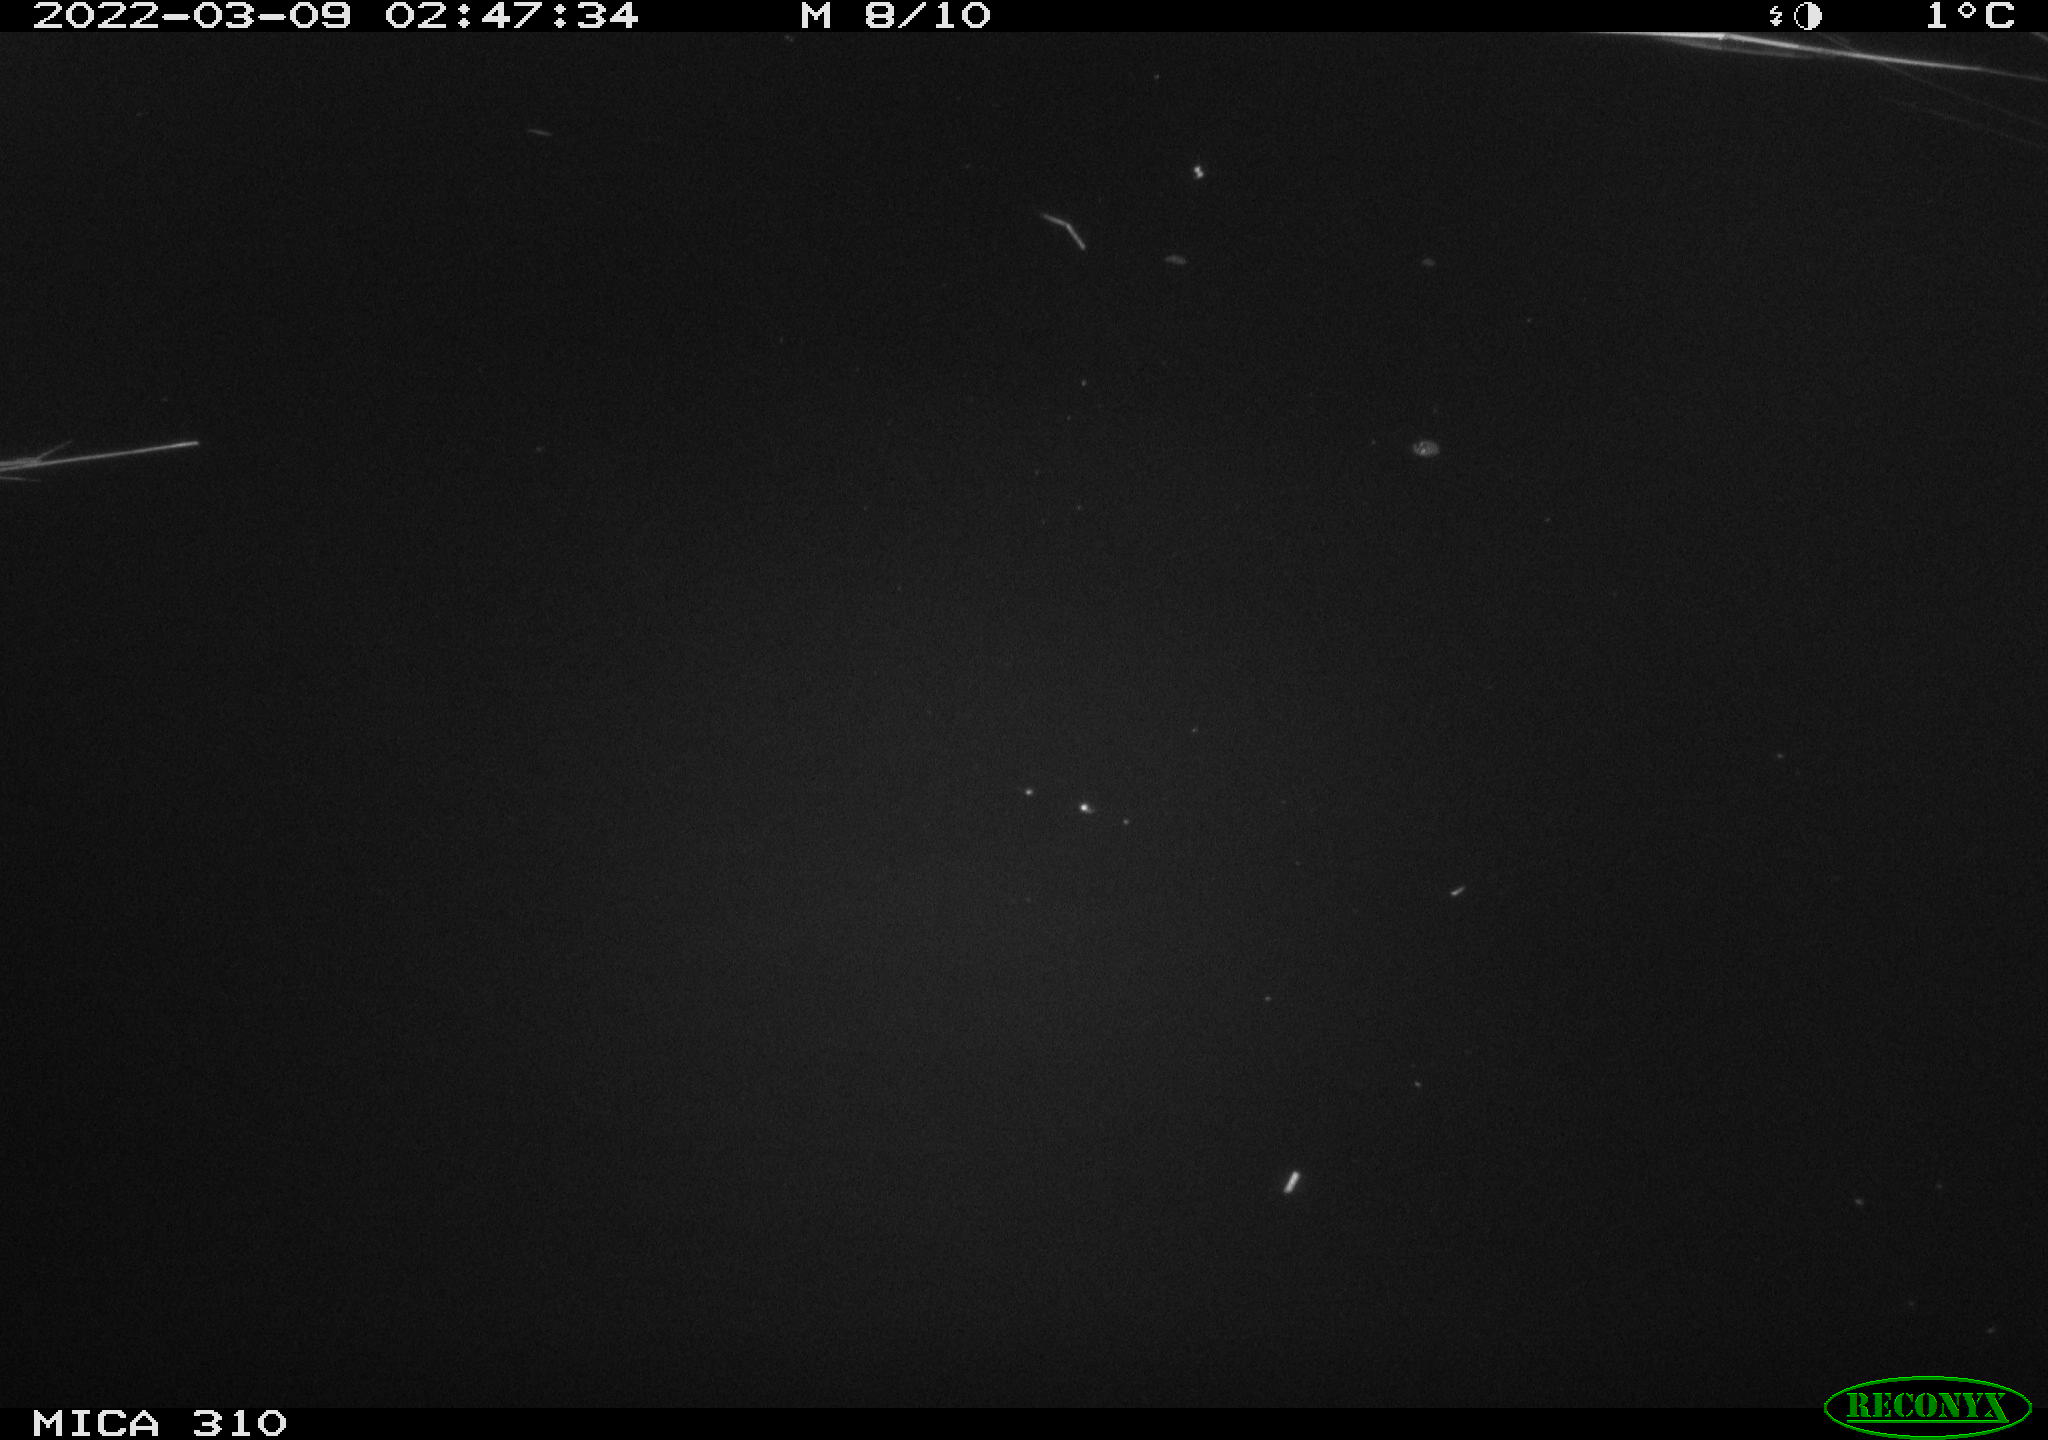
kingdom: Animalia
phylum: Chordata
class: Aves
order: Anseriformes
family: Anatidae
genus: Anas
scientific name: Anas platyrhynchos
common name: Mallard
